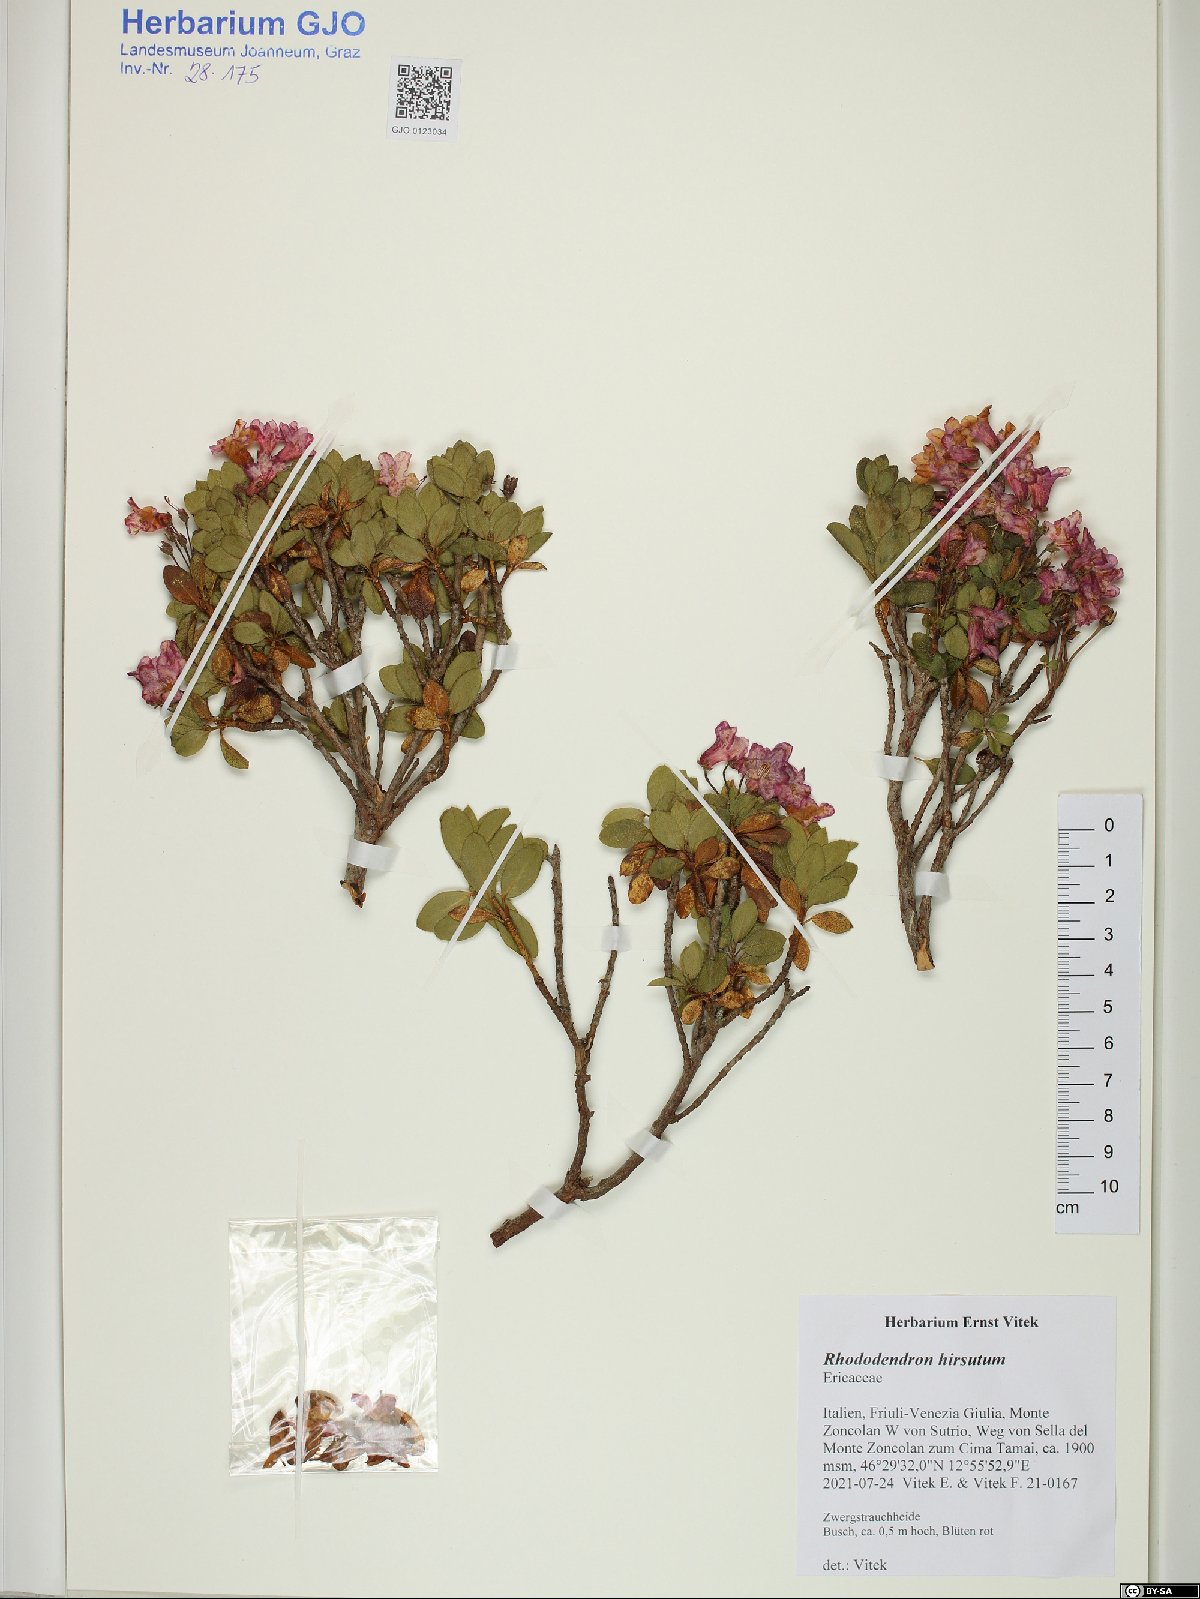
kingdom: Plantae
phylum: Tracheophyta
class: Magnoliopsida
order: Ericales
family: Ericaceae
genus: Rhododendron
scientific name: Rhododendron hirsutum
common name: Hairy alpenrose
